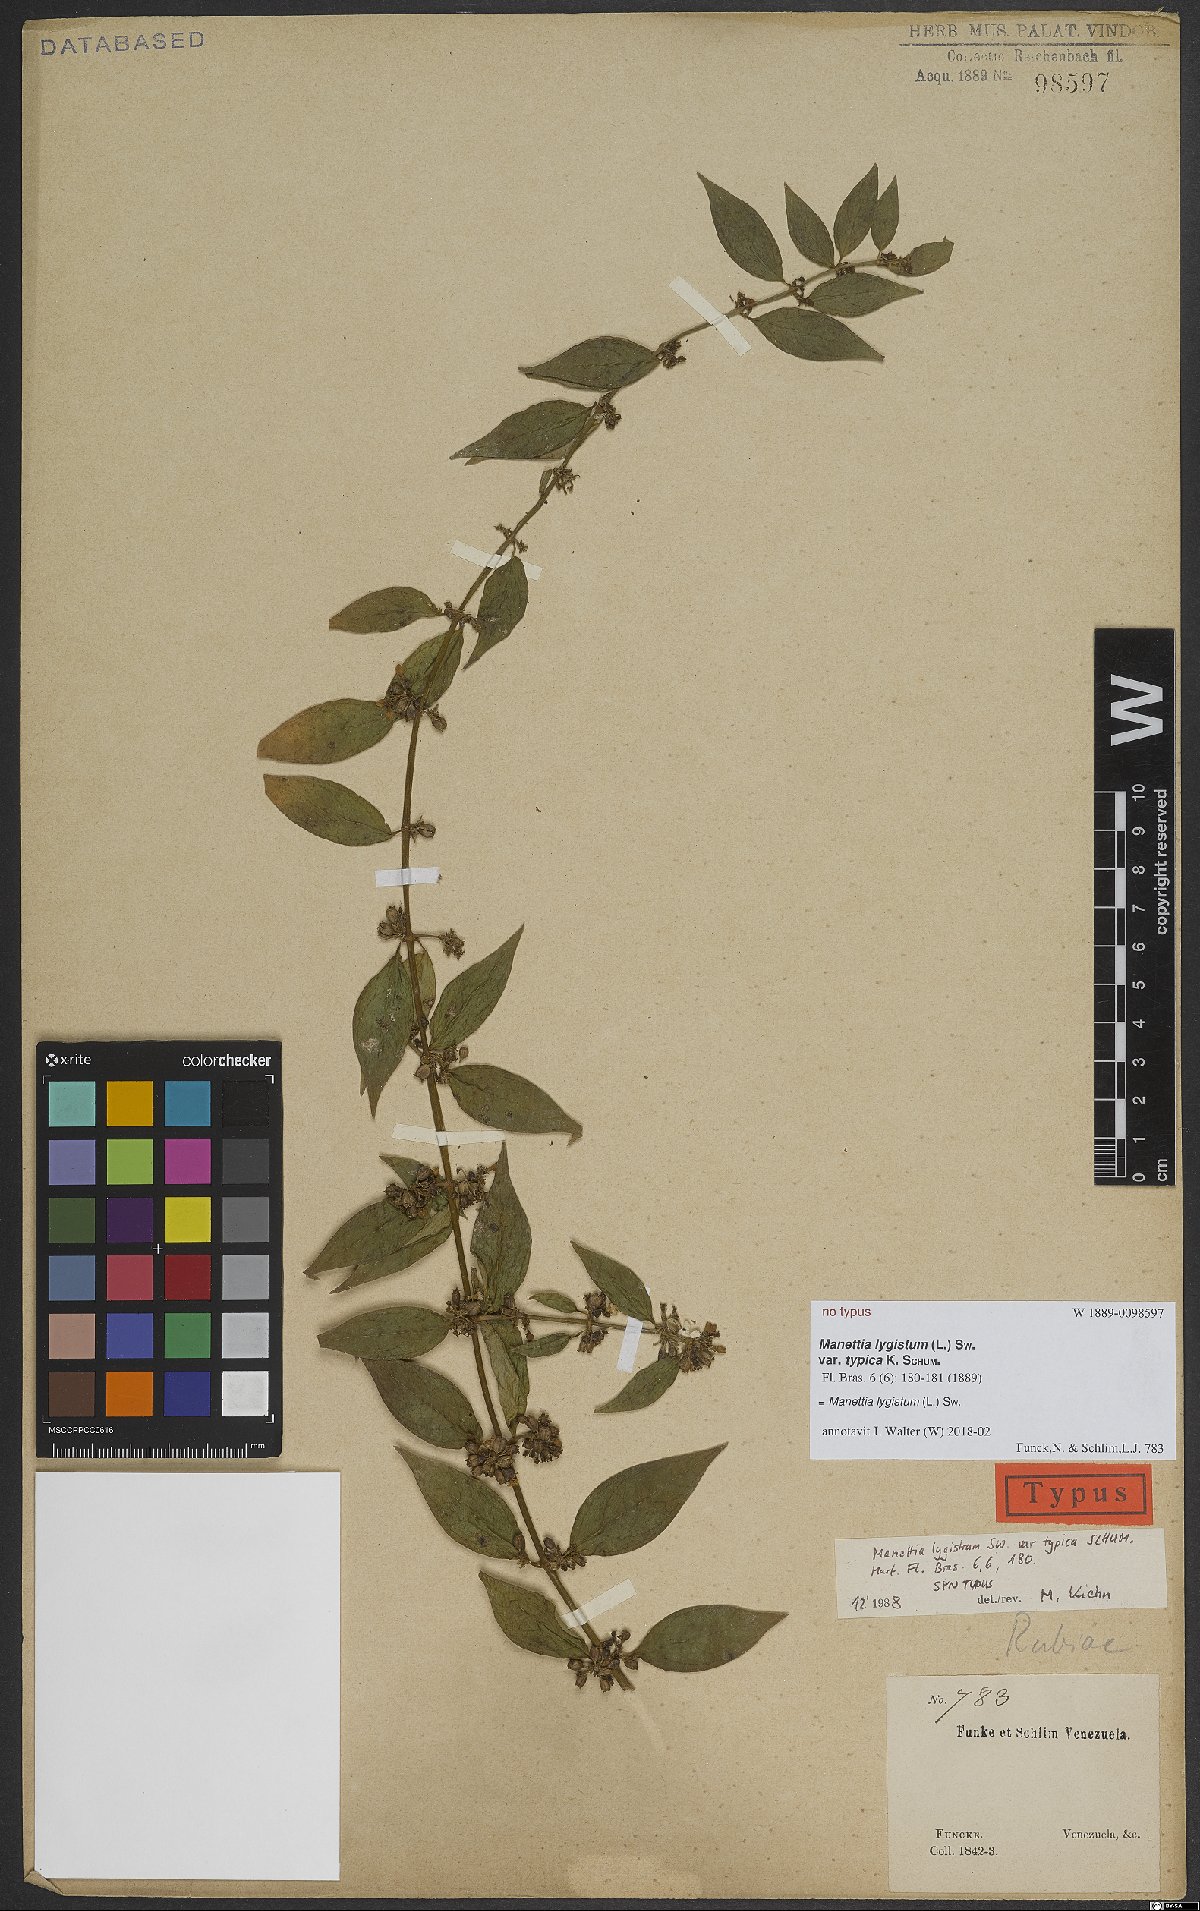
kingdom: Plantae
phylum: Tracheophyta
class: Magnoliopsida
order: Gentianales
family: Rubiaceae
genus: Manettia
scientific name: Manettia lygistum
